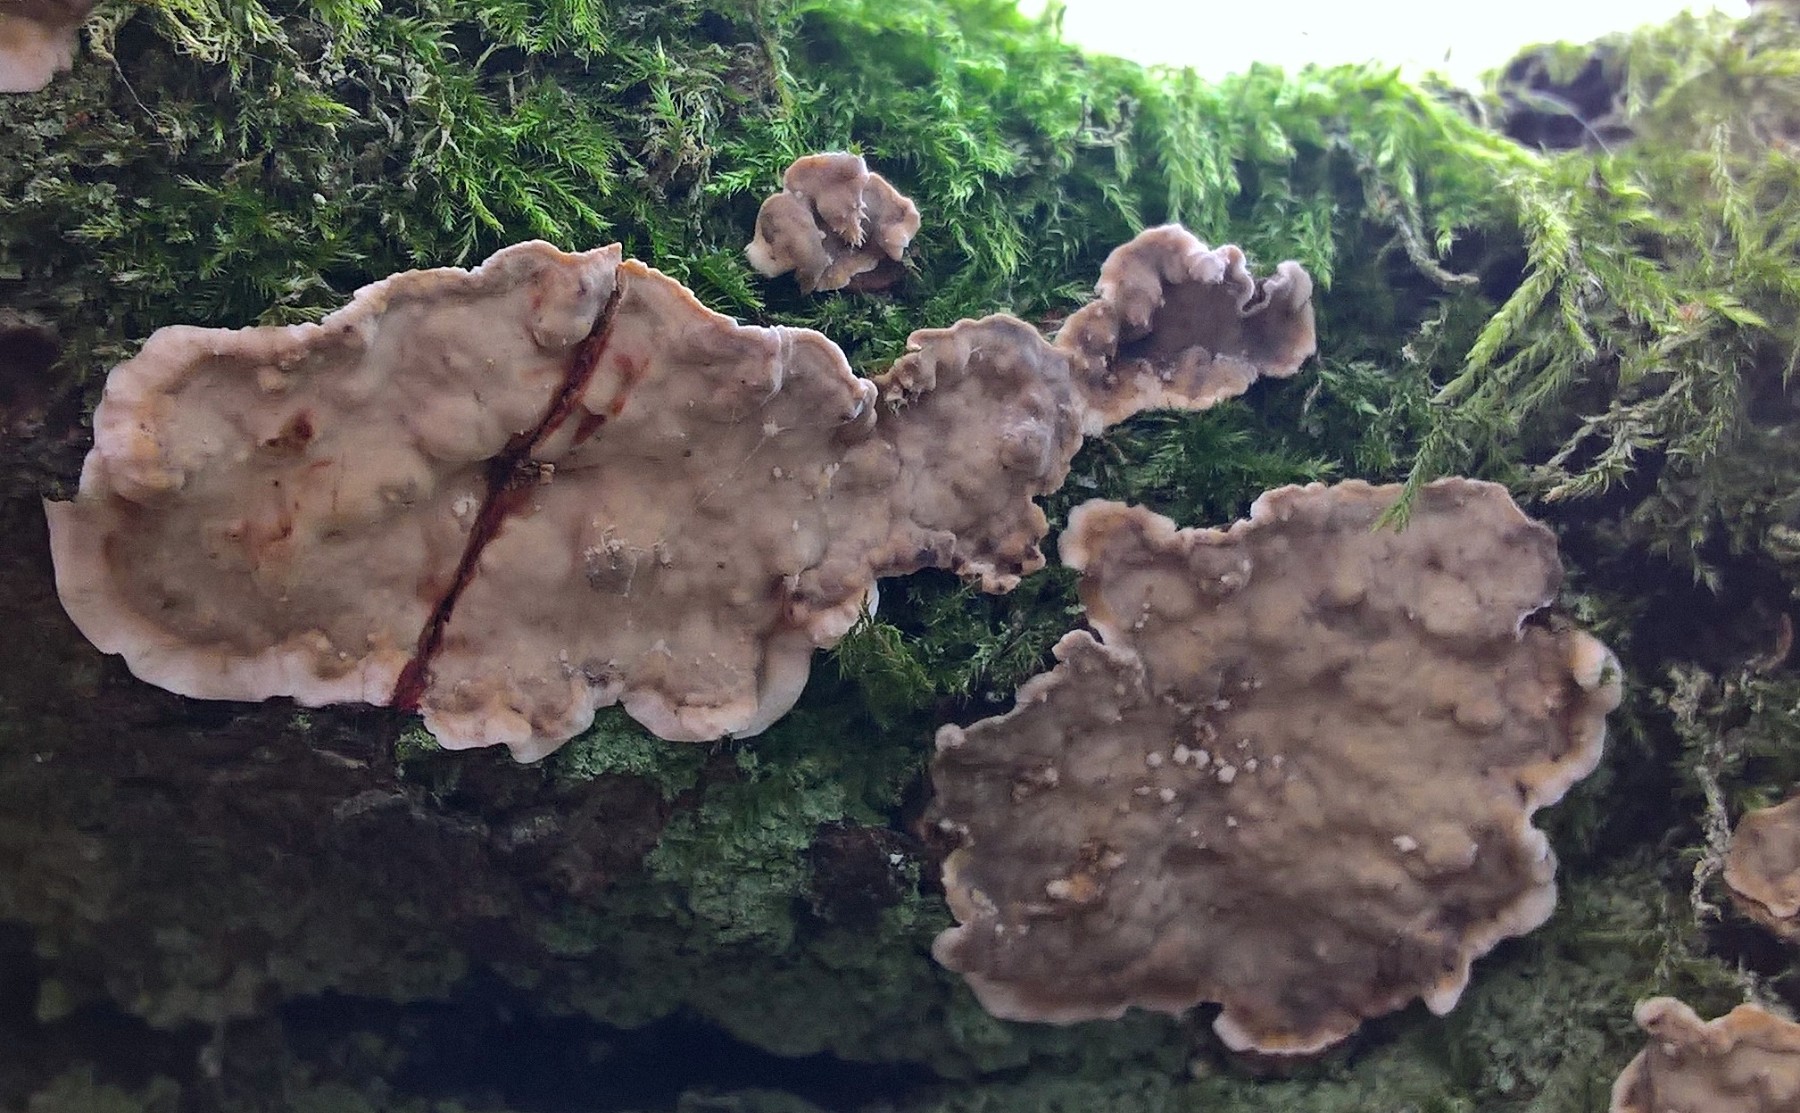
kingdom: Fungi
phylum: Basidiomycota
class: Agaricomycetes
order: Russulales
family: Stereaceae
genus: Stereum
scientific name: Stereum rugosum
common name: rynket lædersvamp
